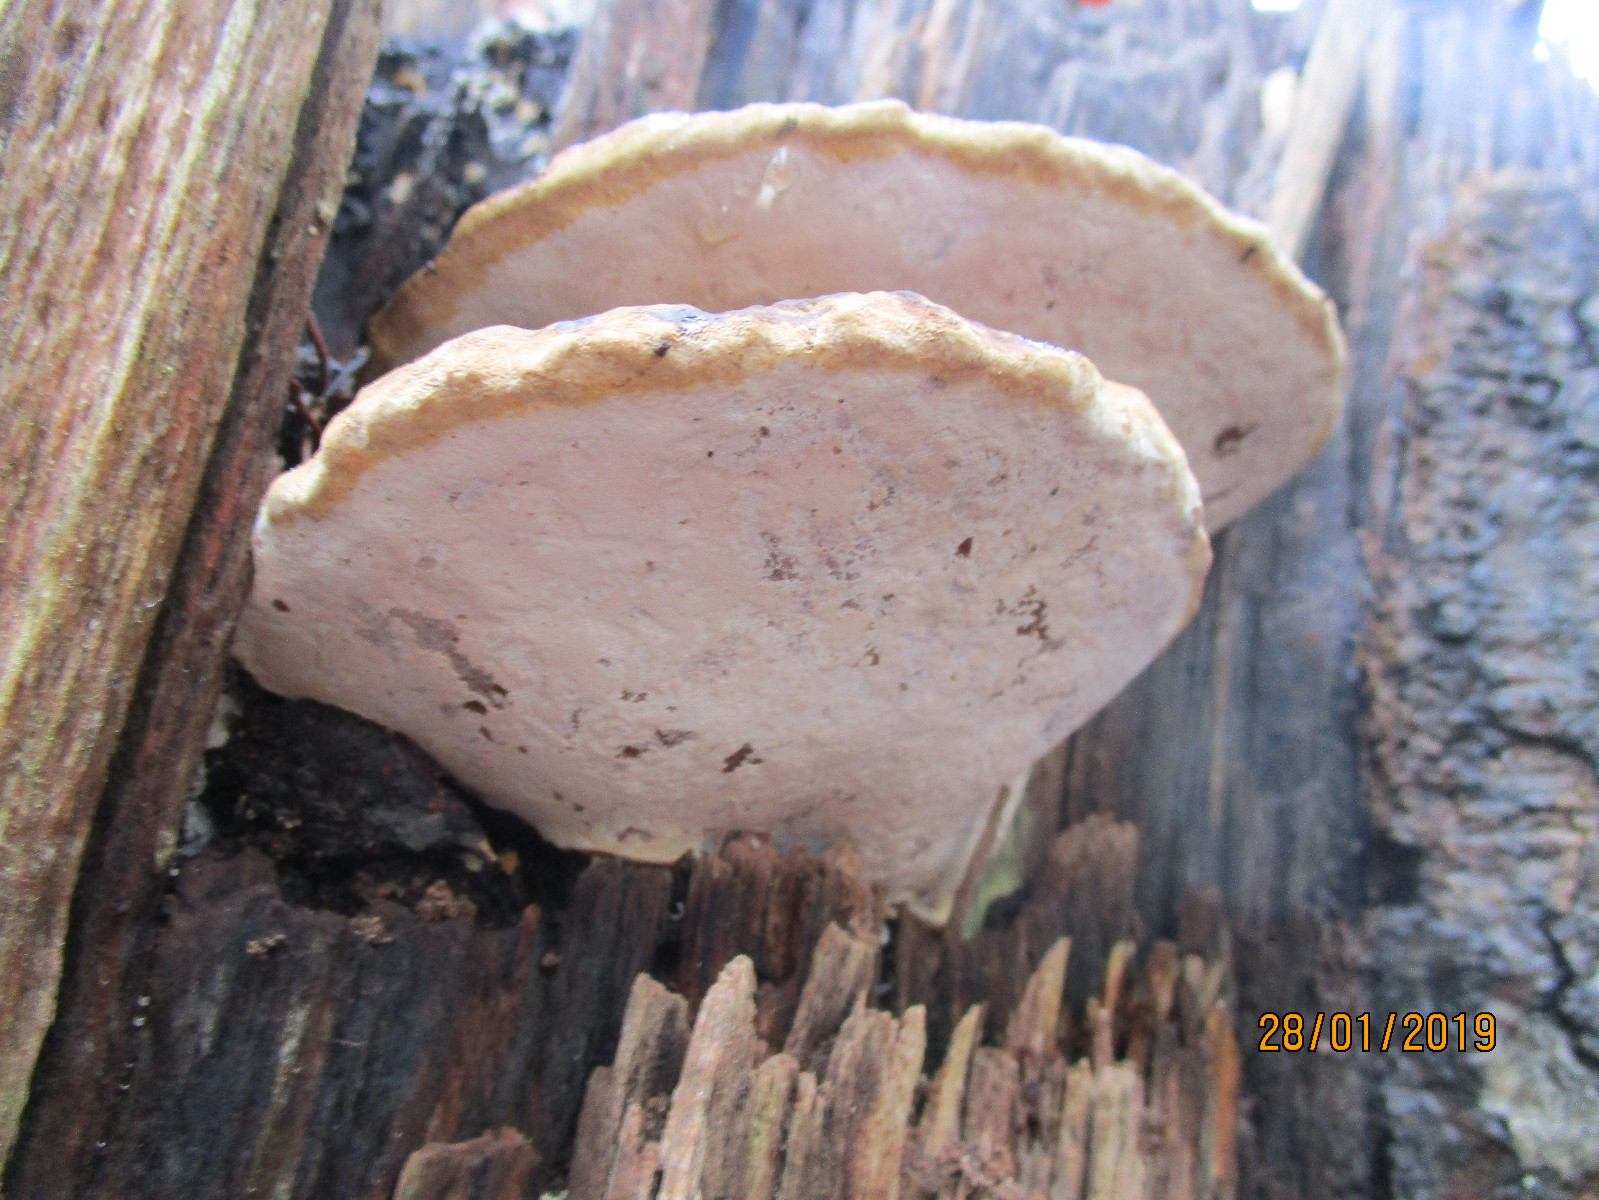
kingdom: Fungi
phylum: Basidiomycota
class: Agaricomycetes
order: Polyporales
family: Polyporaceae
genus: Ganoderma
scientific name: Ganoderma adspersum
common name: grov lakporesvamp
